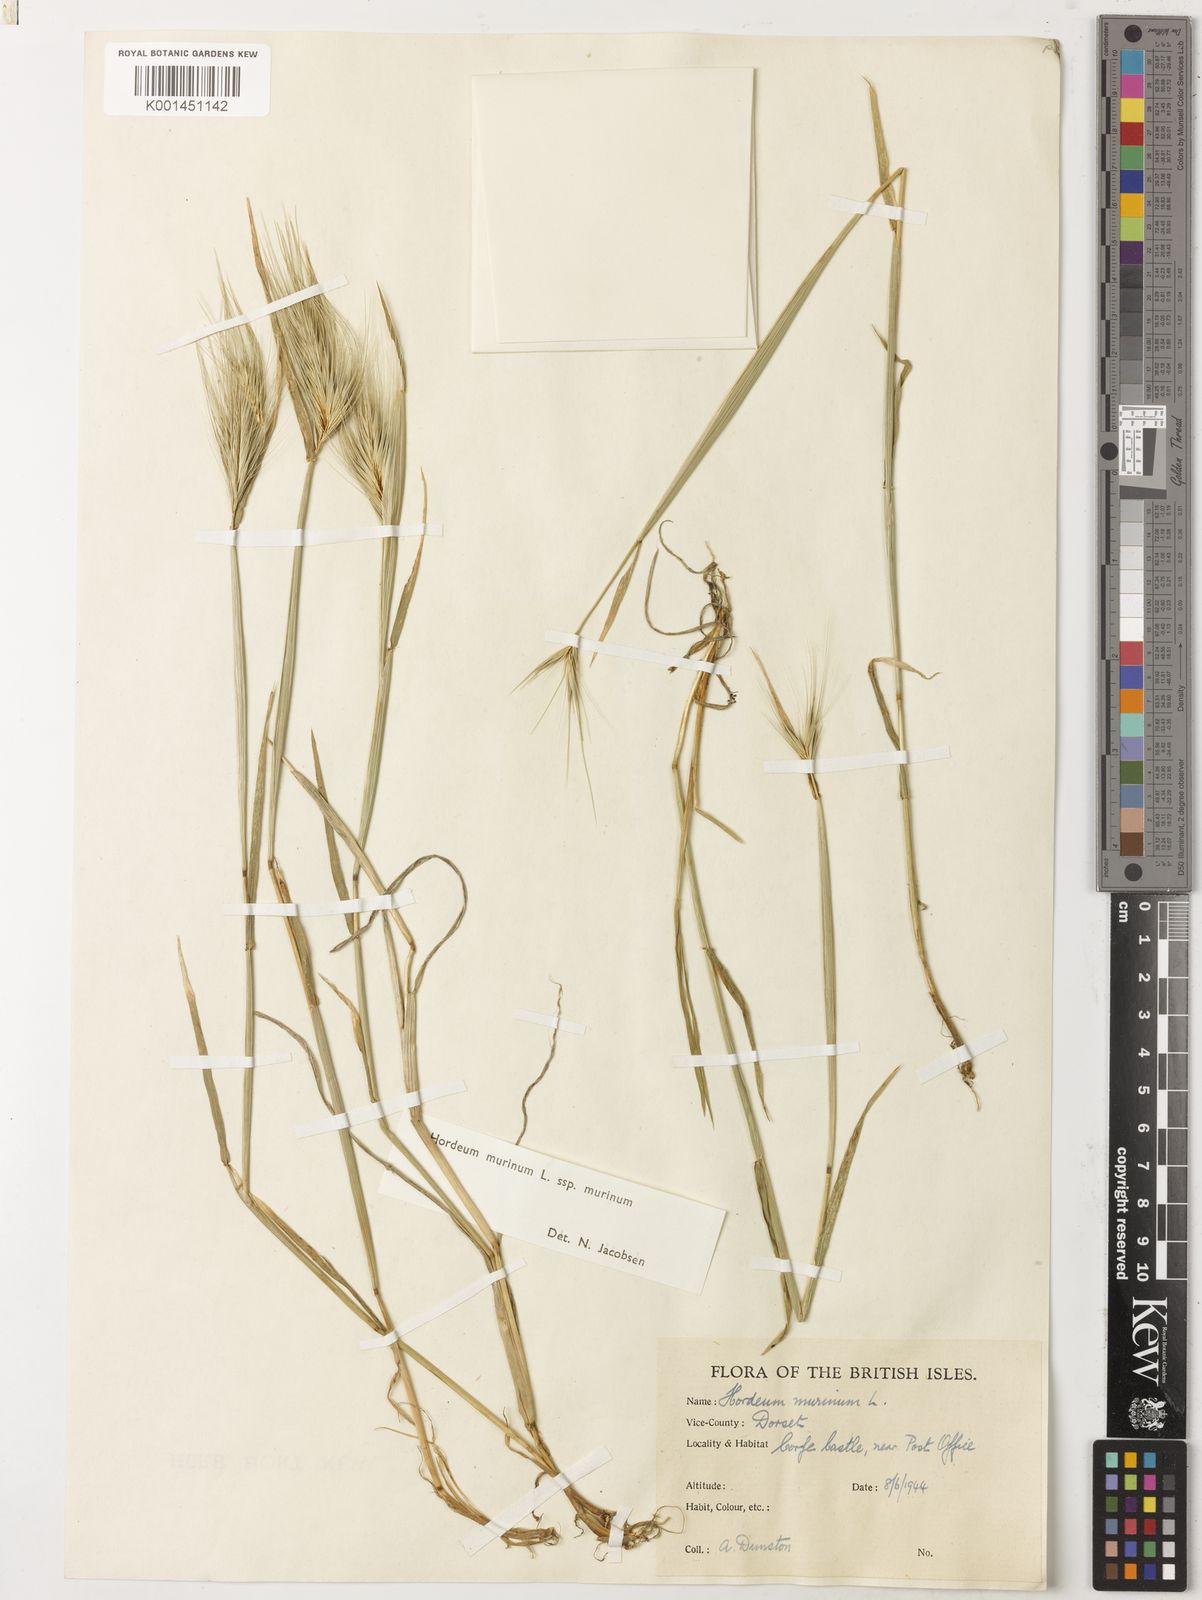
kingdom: Plantae
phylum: Tracheophyta
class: Liliopsida
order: Poales
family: Poaceae
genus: Hordeum
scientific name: Hordeum murinum
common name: Wall barley
